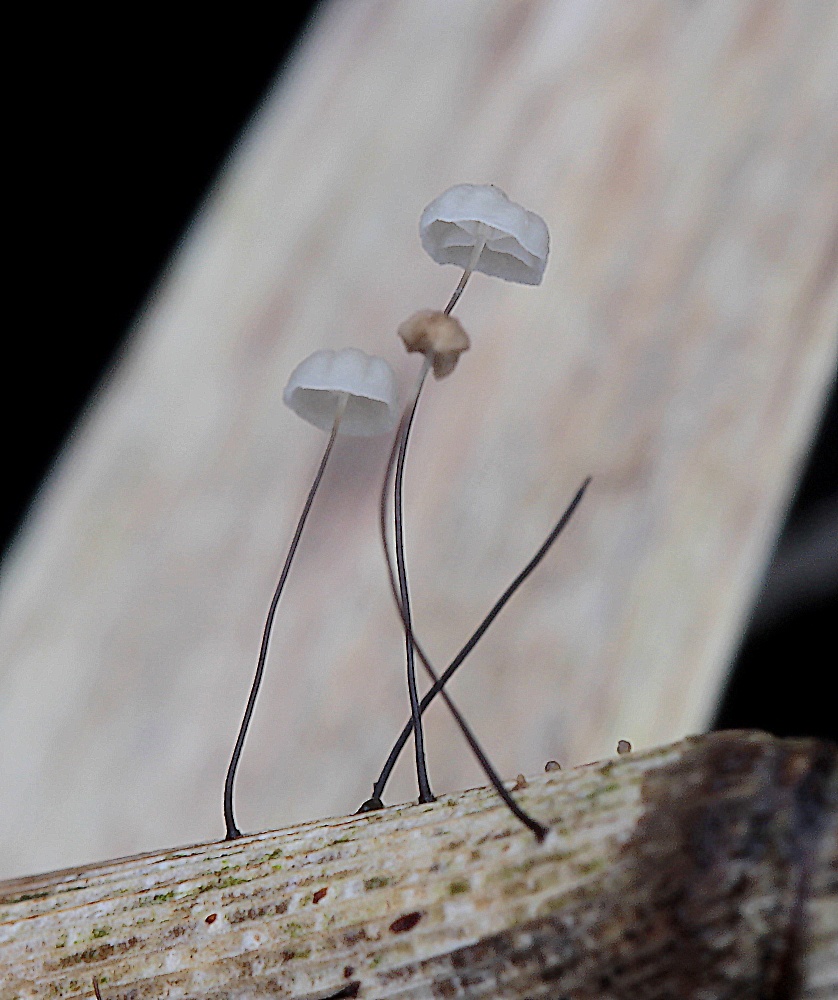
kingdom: Fungi
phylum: Basidiomycota
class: Agaricomycetes
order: Agaricales
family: Marasmiaceae
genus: Marasmius
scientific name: Marasmius limosus
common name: kær-bruskhat
